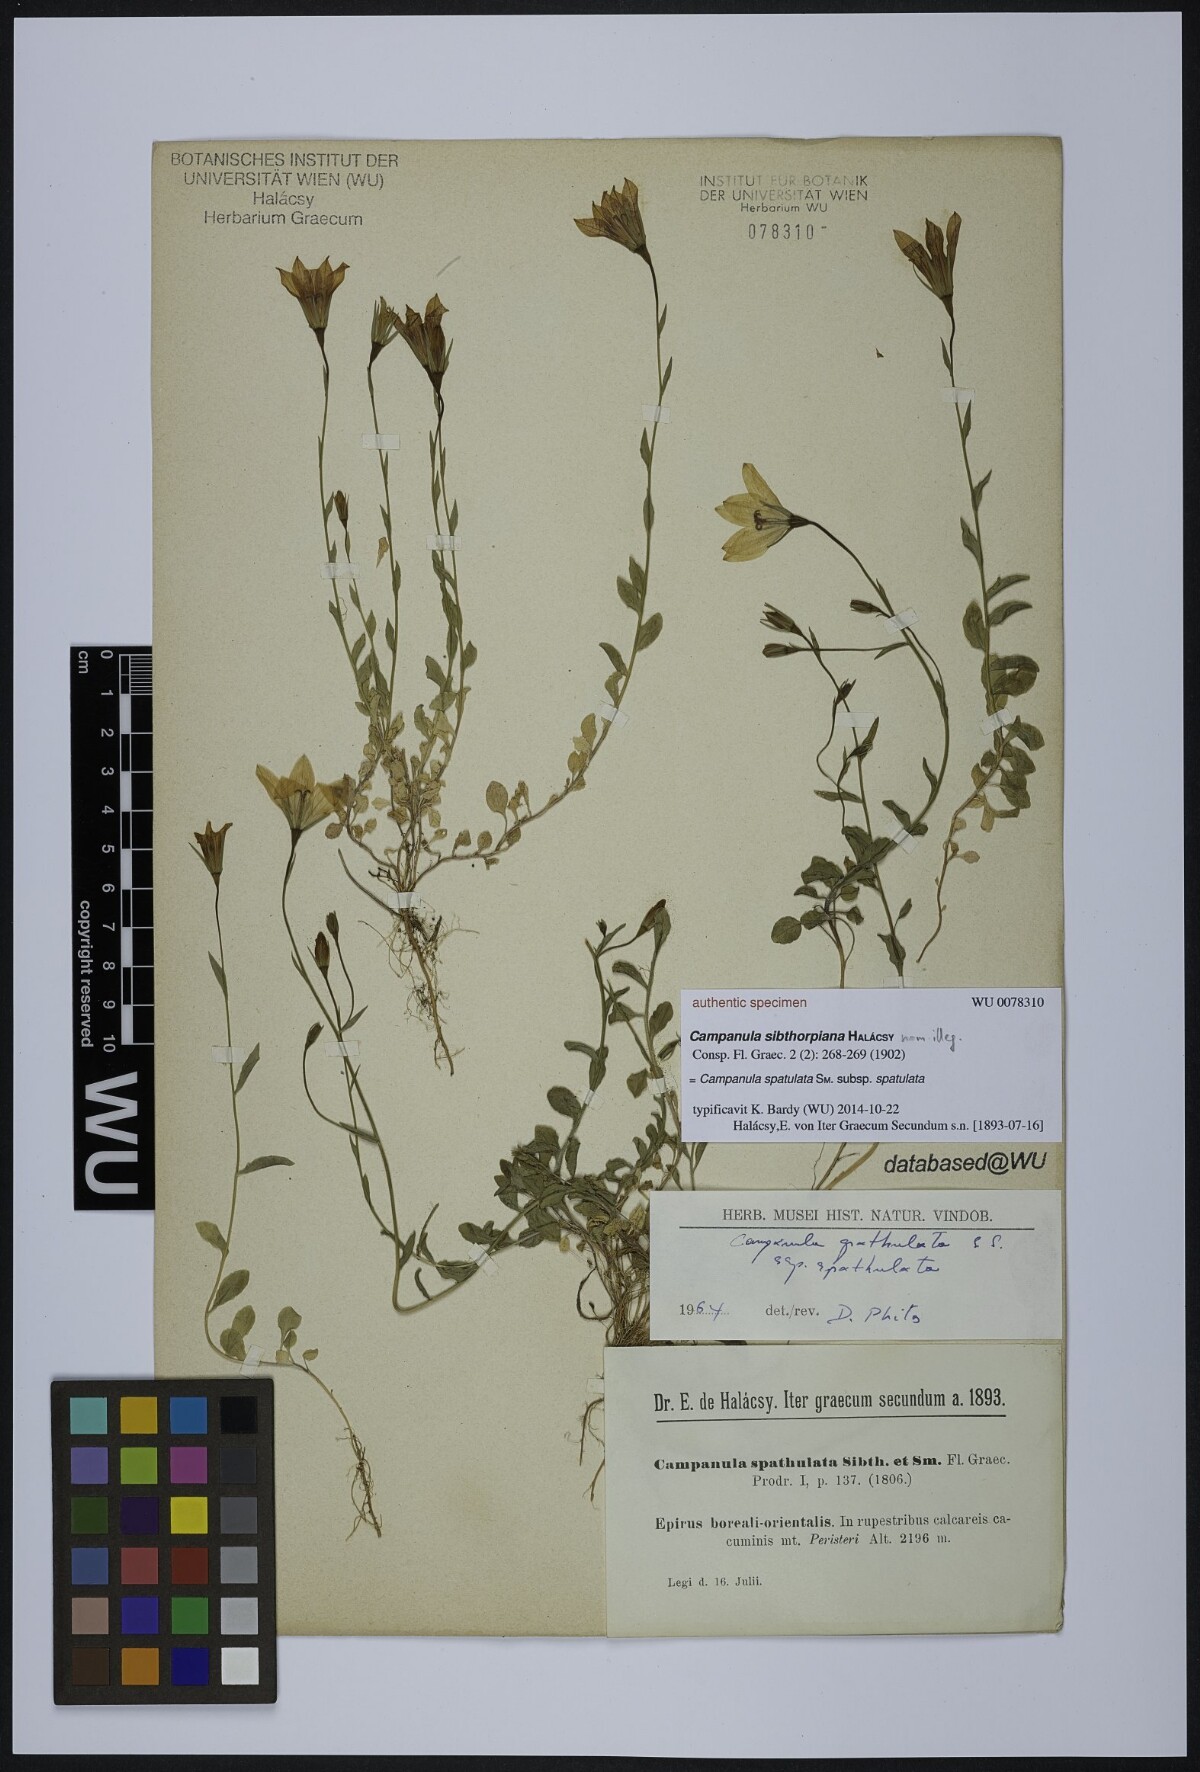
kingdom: Plantae
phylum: Tracheophyta
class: Magnoliopsida
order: Asterales
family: Campanulaceae
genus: Campanula
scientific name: Campanula spatulata
